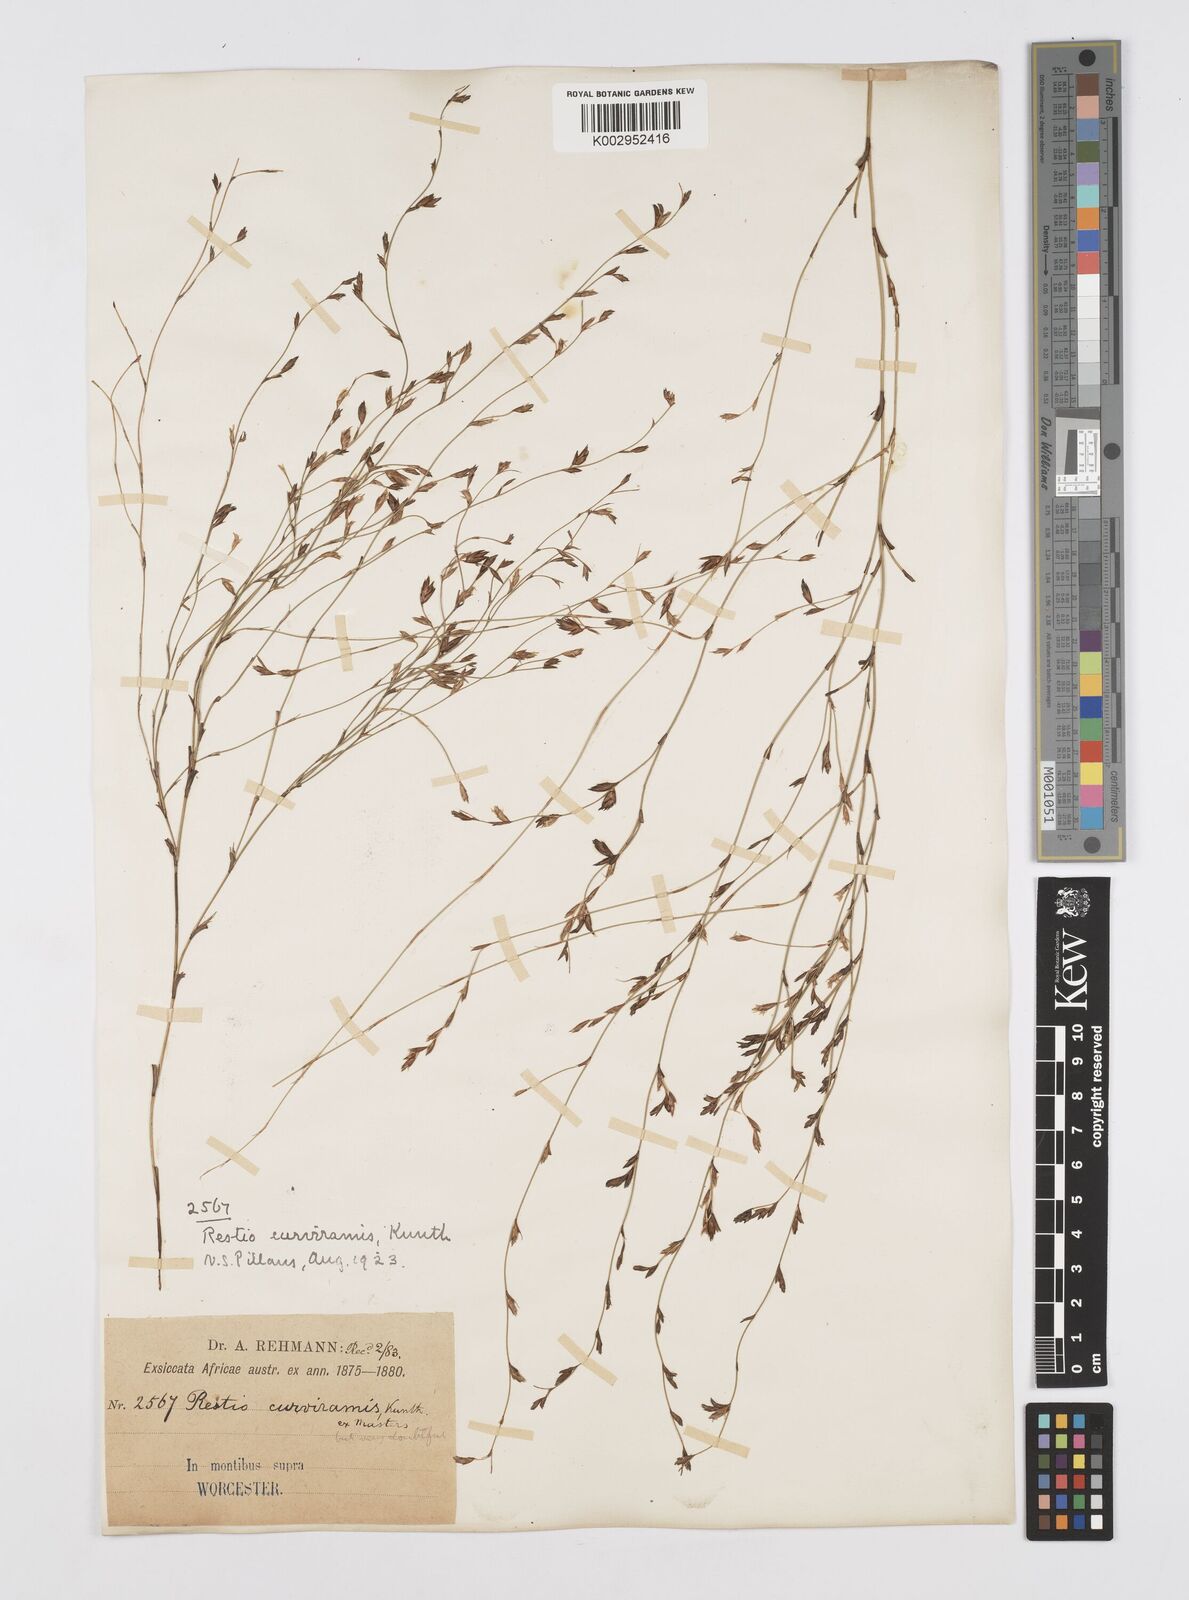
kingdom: Plantae
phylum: Tracheophyta
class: Liliopsida
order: Poales
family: Restionaceae
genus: Restio
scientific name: Restio curviramis
